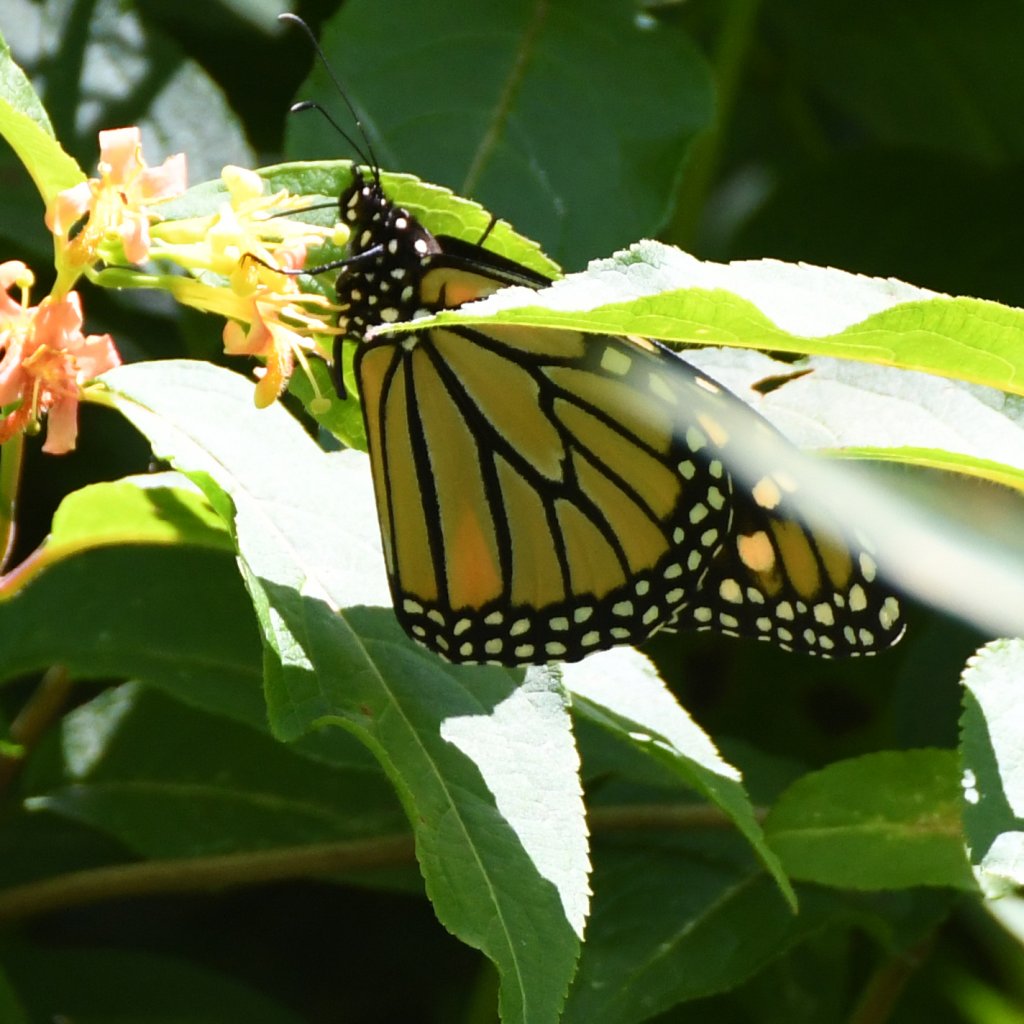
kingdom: Animalia
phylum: Arthropoda
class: Insecta
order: Lepidoptera
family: Nymphalidae
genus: Danaus
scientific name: Danaus plexippus
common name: Monarch
